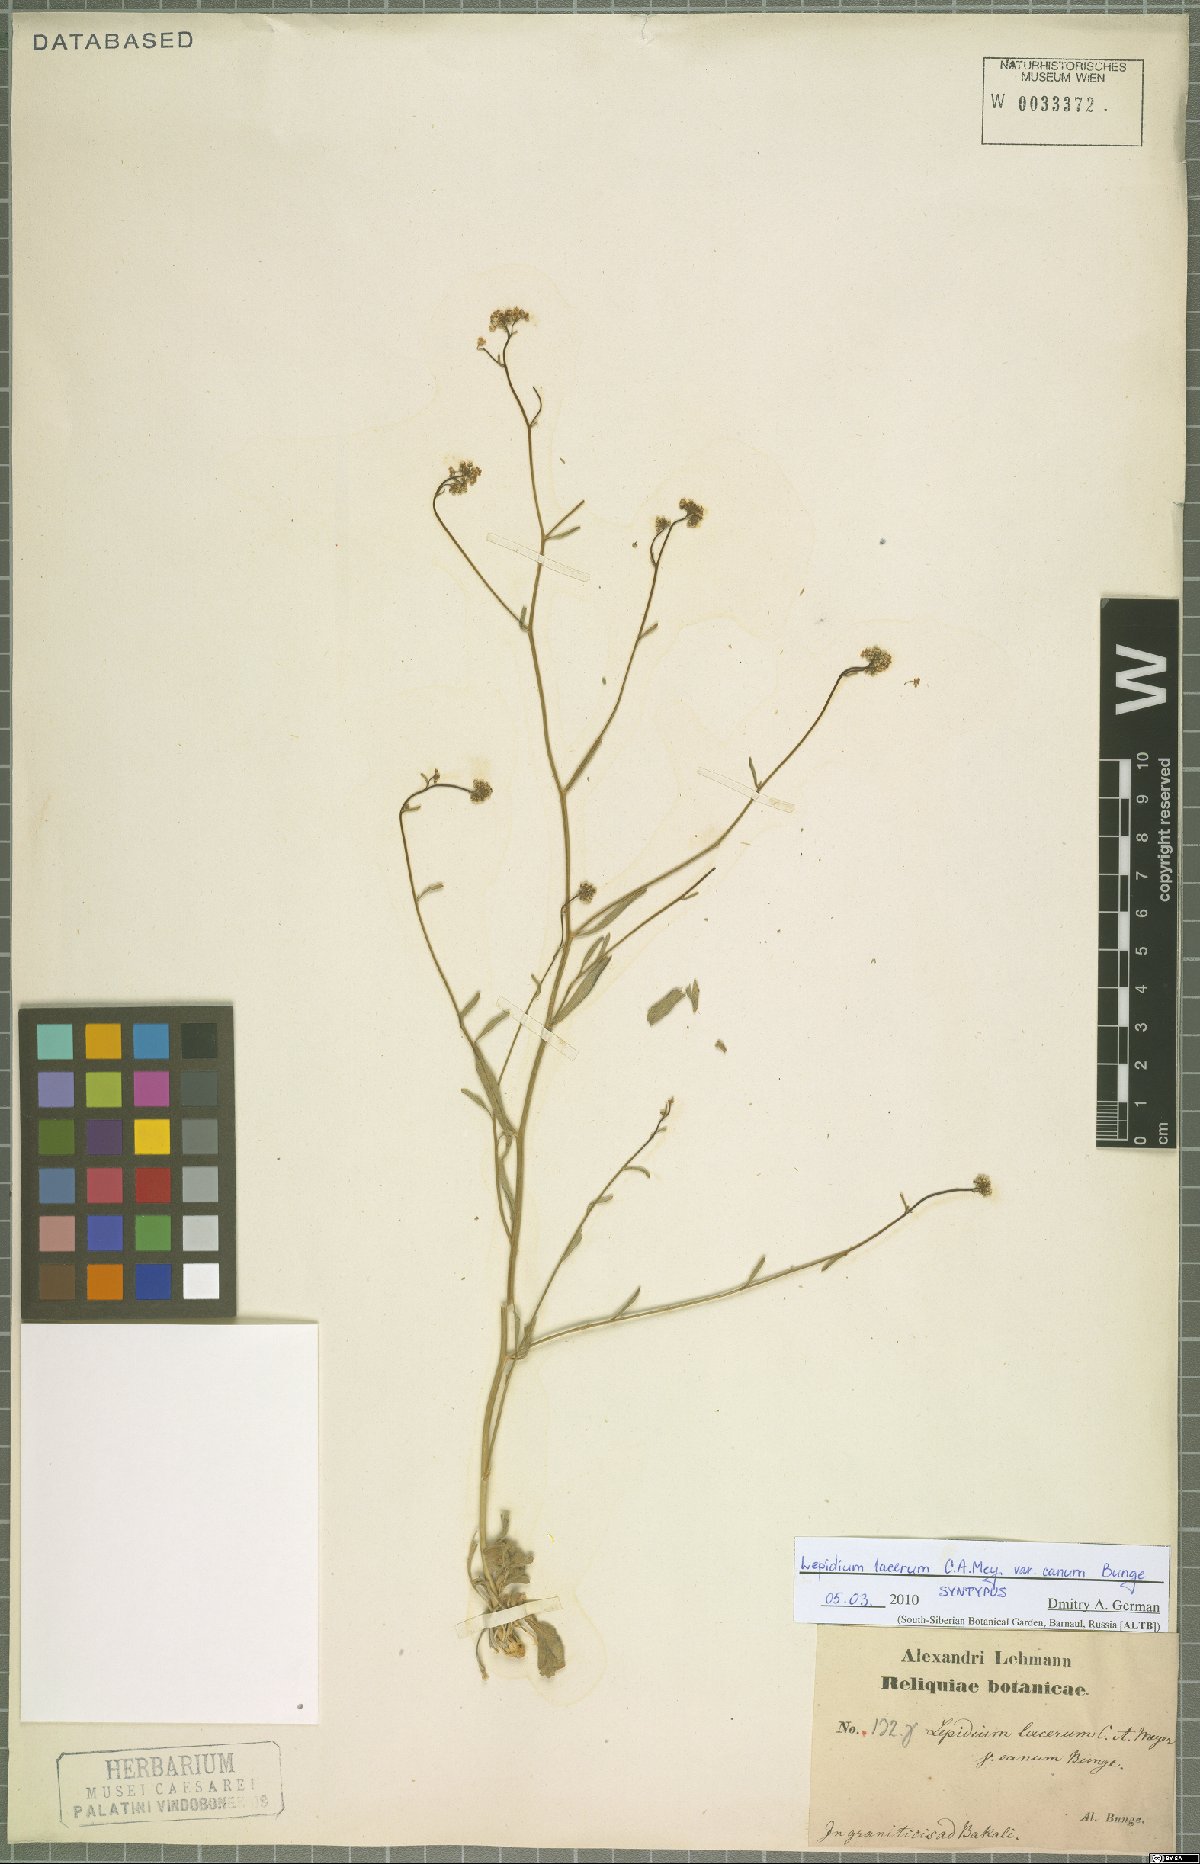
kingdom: Plantae
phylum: Tracheophyta
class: Magnoliopsida
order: Brassicales
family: Brassicaceae
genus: Lepidium
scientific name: Lepidium lacerum
